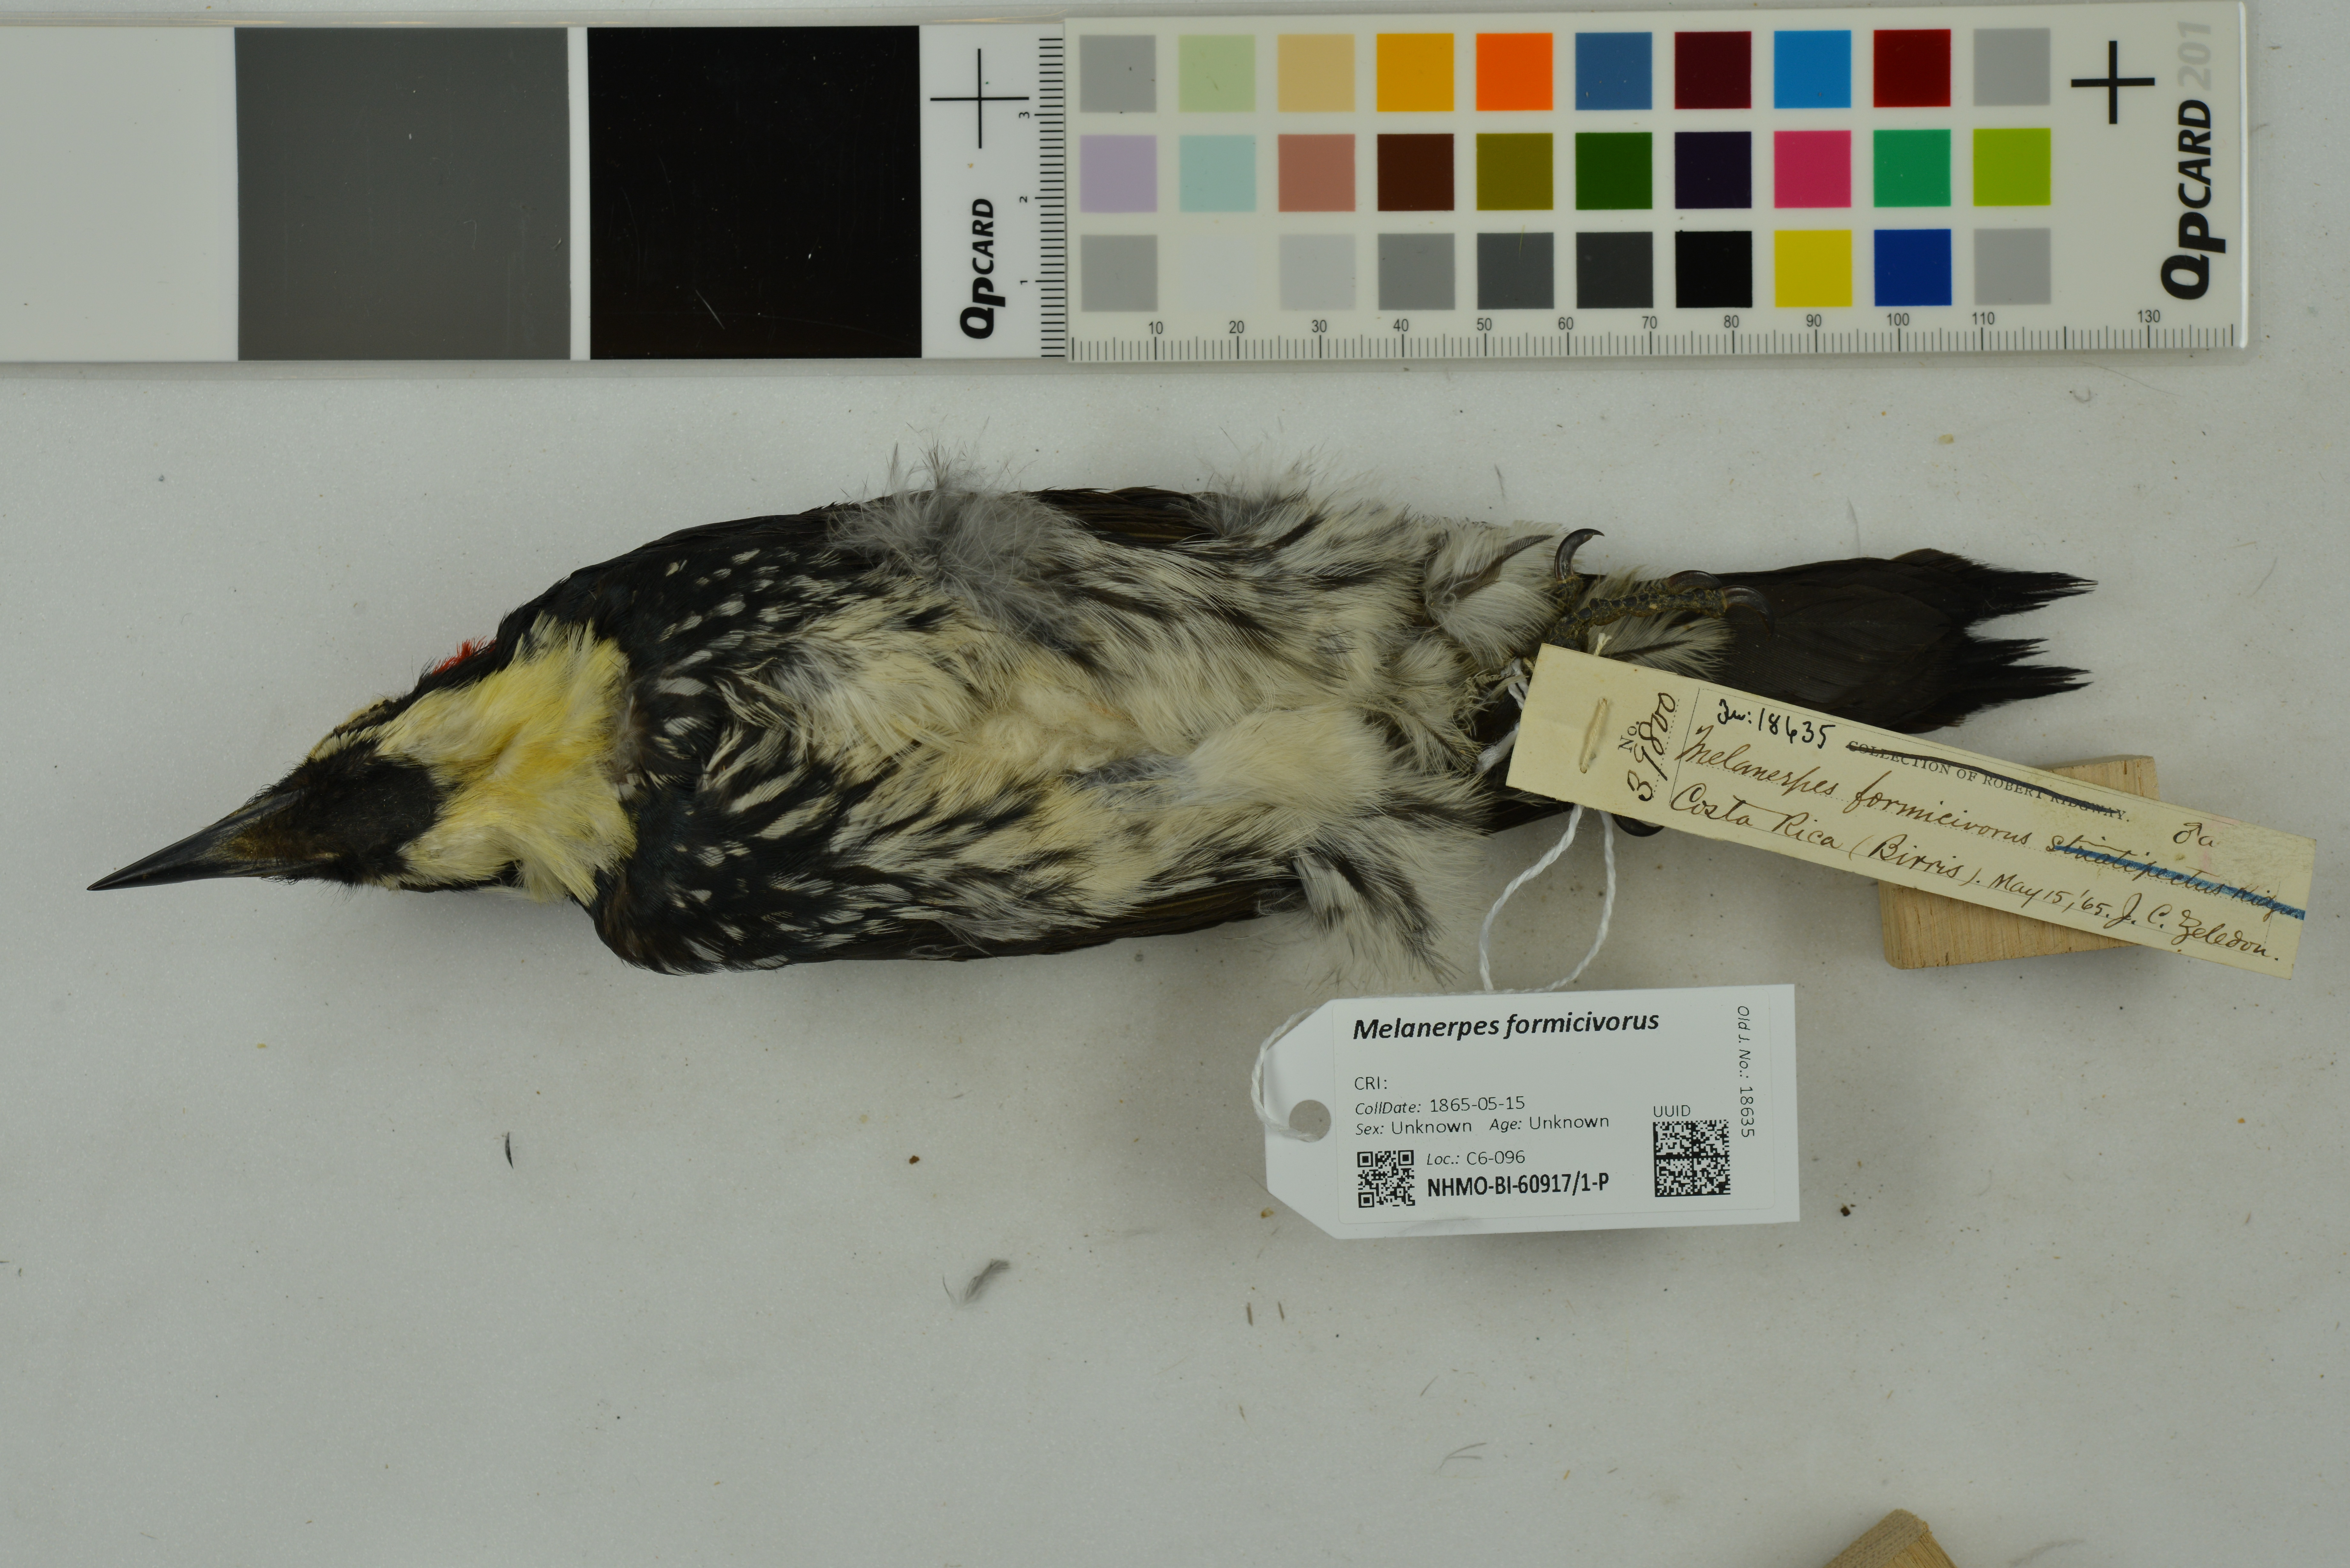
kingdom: Animalia
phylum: Chordata
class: Aves
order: Piciformes
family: Picidae
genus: Melanerpes
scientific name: Melanerpes formicivorus
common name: Acorn woodpecker
